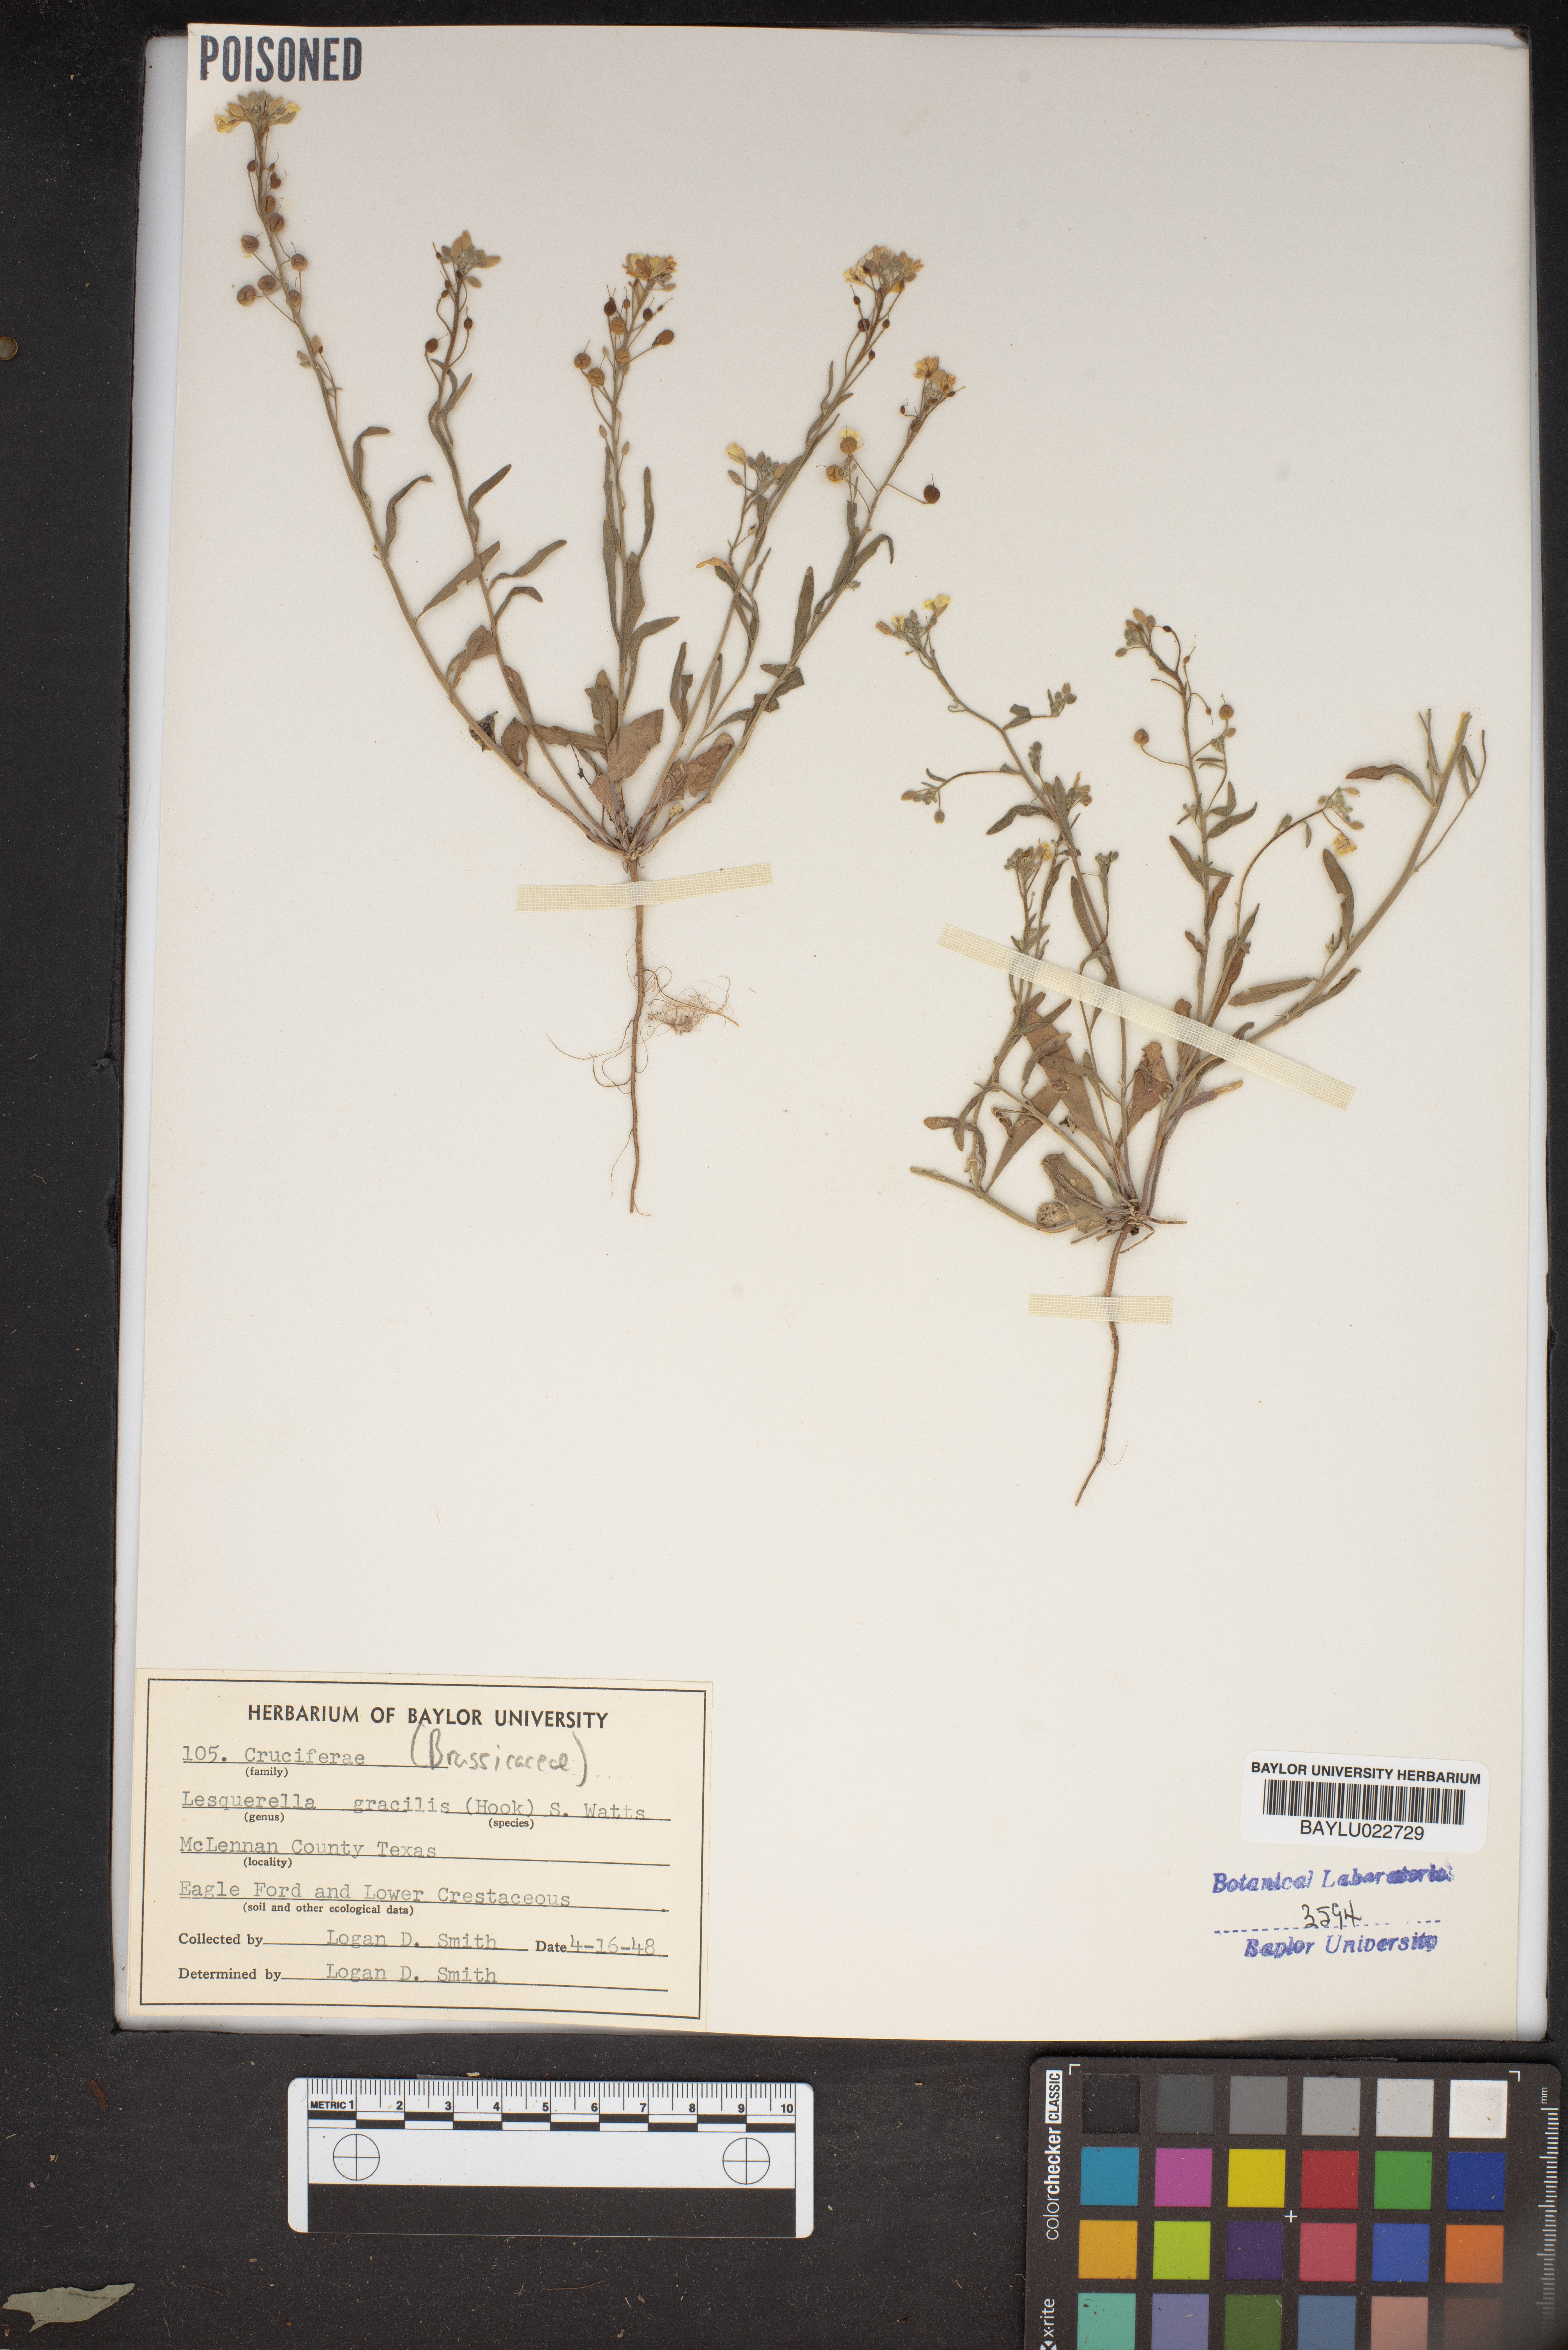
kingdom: Plantae
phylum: Tracheophyta
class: Magnoliopsida
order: Brassicales
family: Brassicaceae
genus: Physaria
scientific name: Physaria gracilis
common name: Spreading bladderpod
